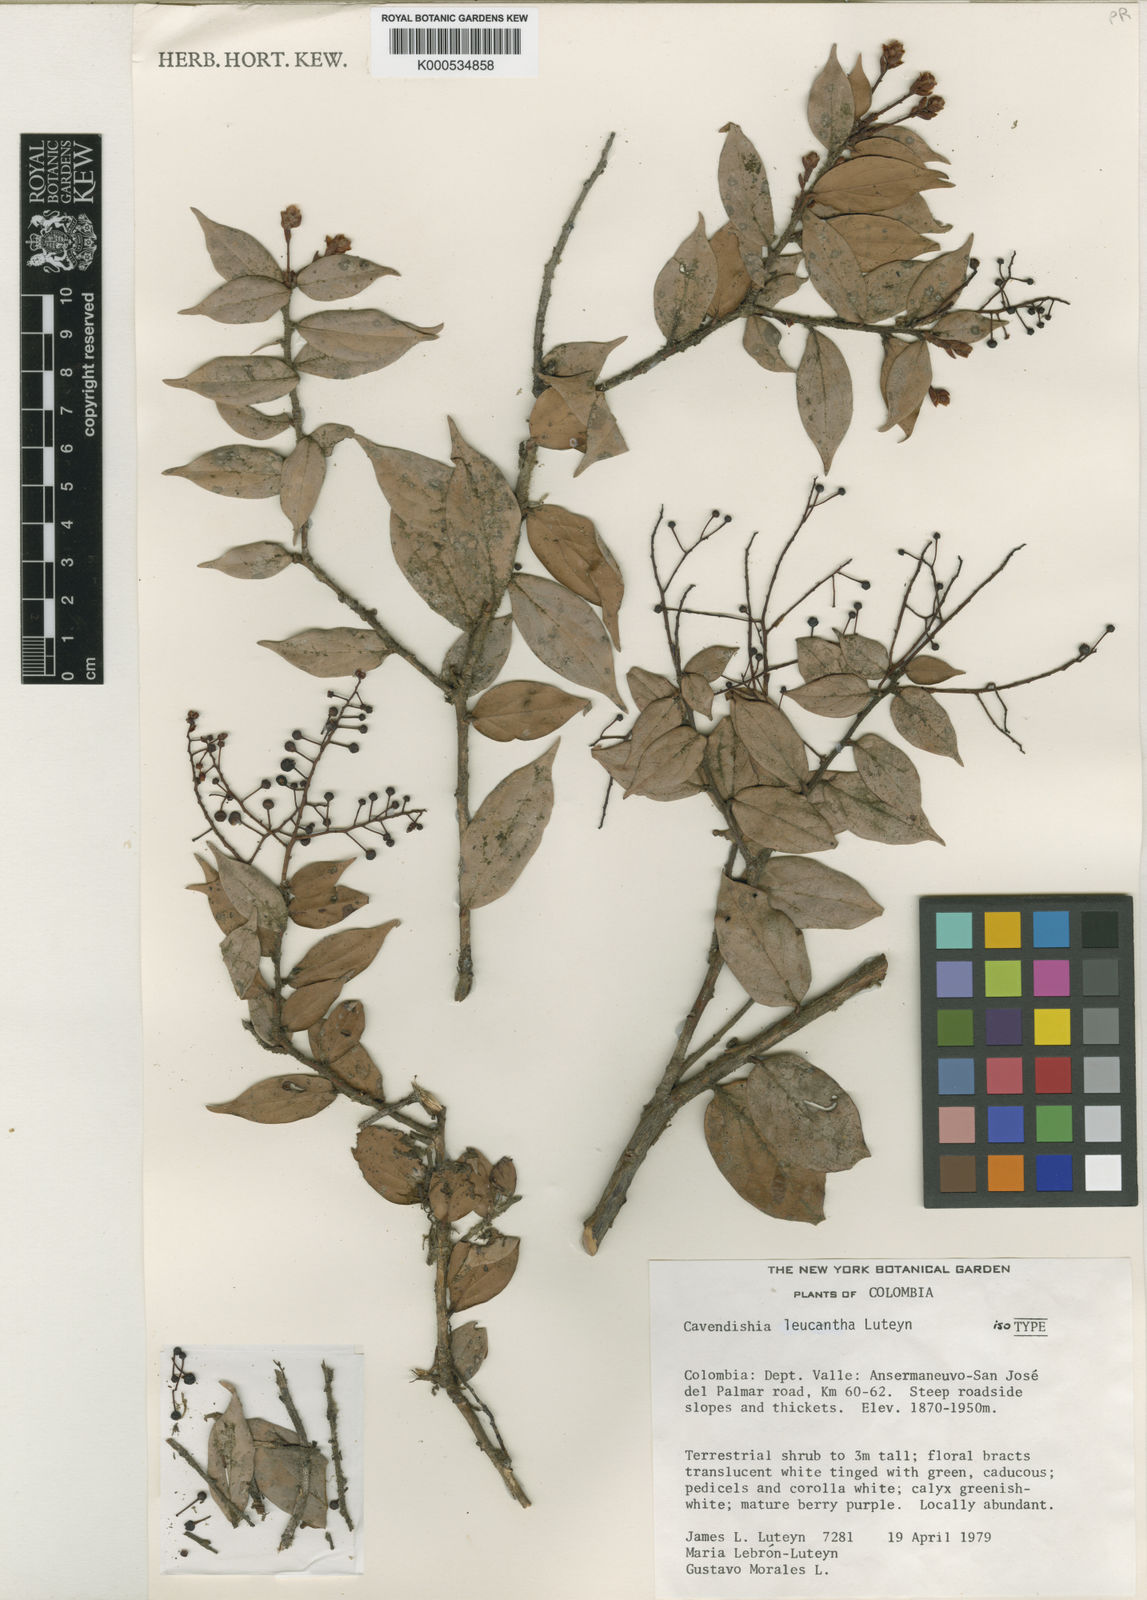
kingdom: Plantae
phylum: Tracheophyta
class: Magnoliopsida
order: Ericales
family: Ericaceae
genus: Cavendishia
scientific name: Cavendishia leucantha
